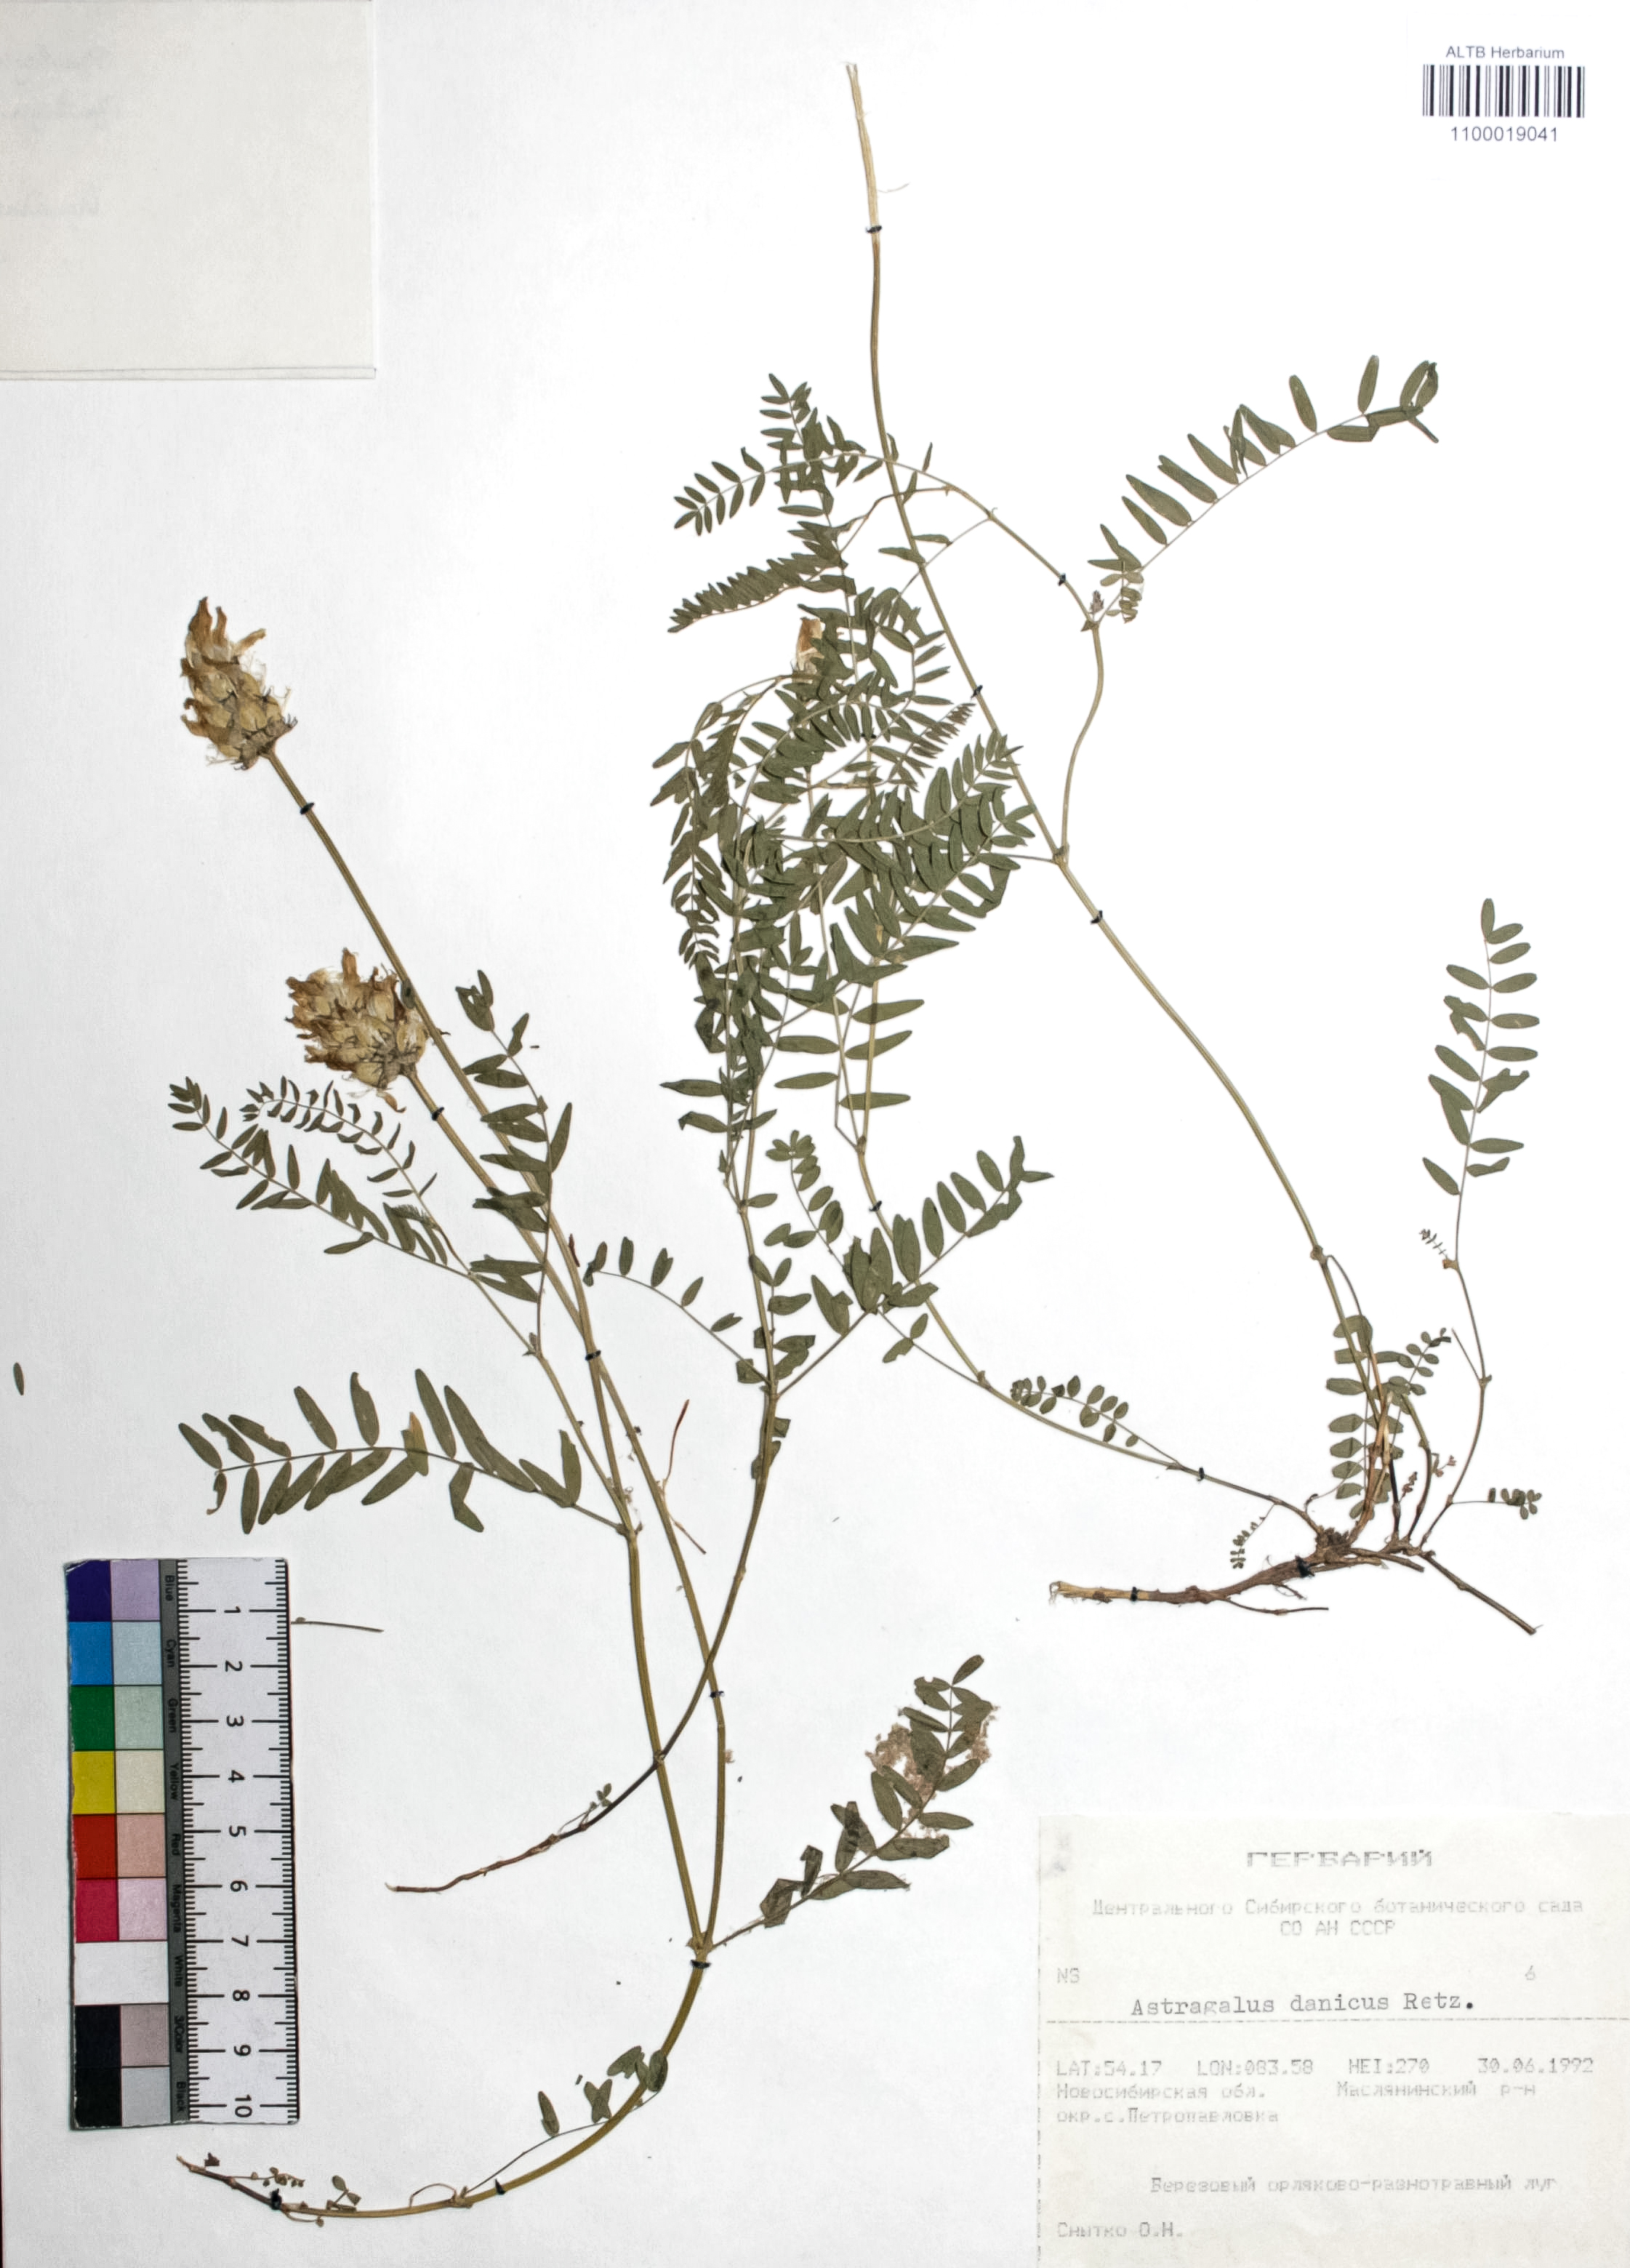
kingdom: Plantae
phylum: Tracheophyta
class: Magnoliopsida
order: Fabales
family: Fabaceae
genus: Astragalus
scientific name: Astragalus danicus
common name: Purple milk-vetch
